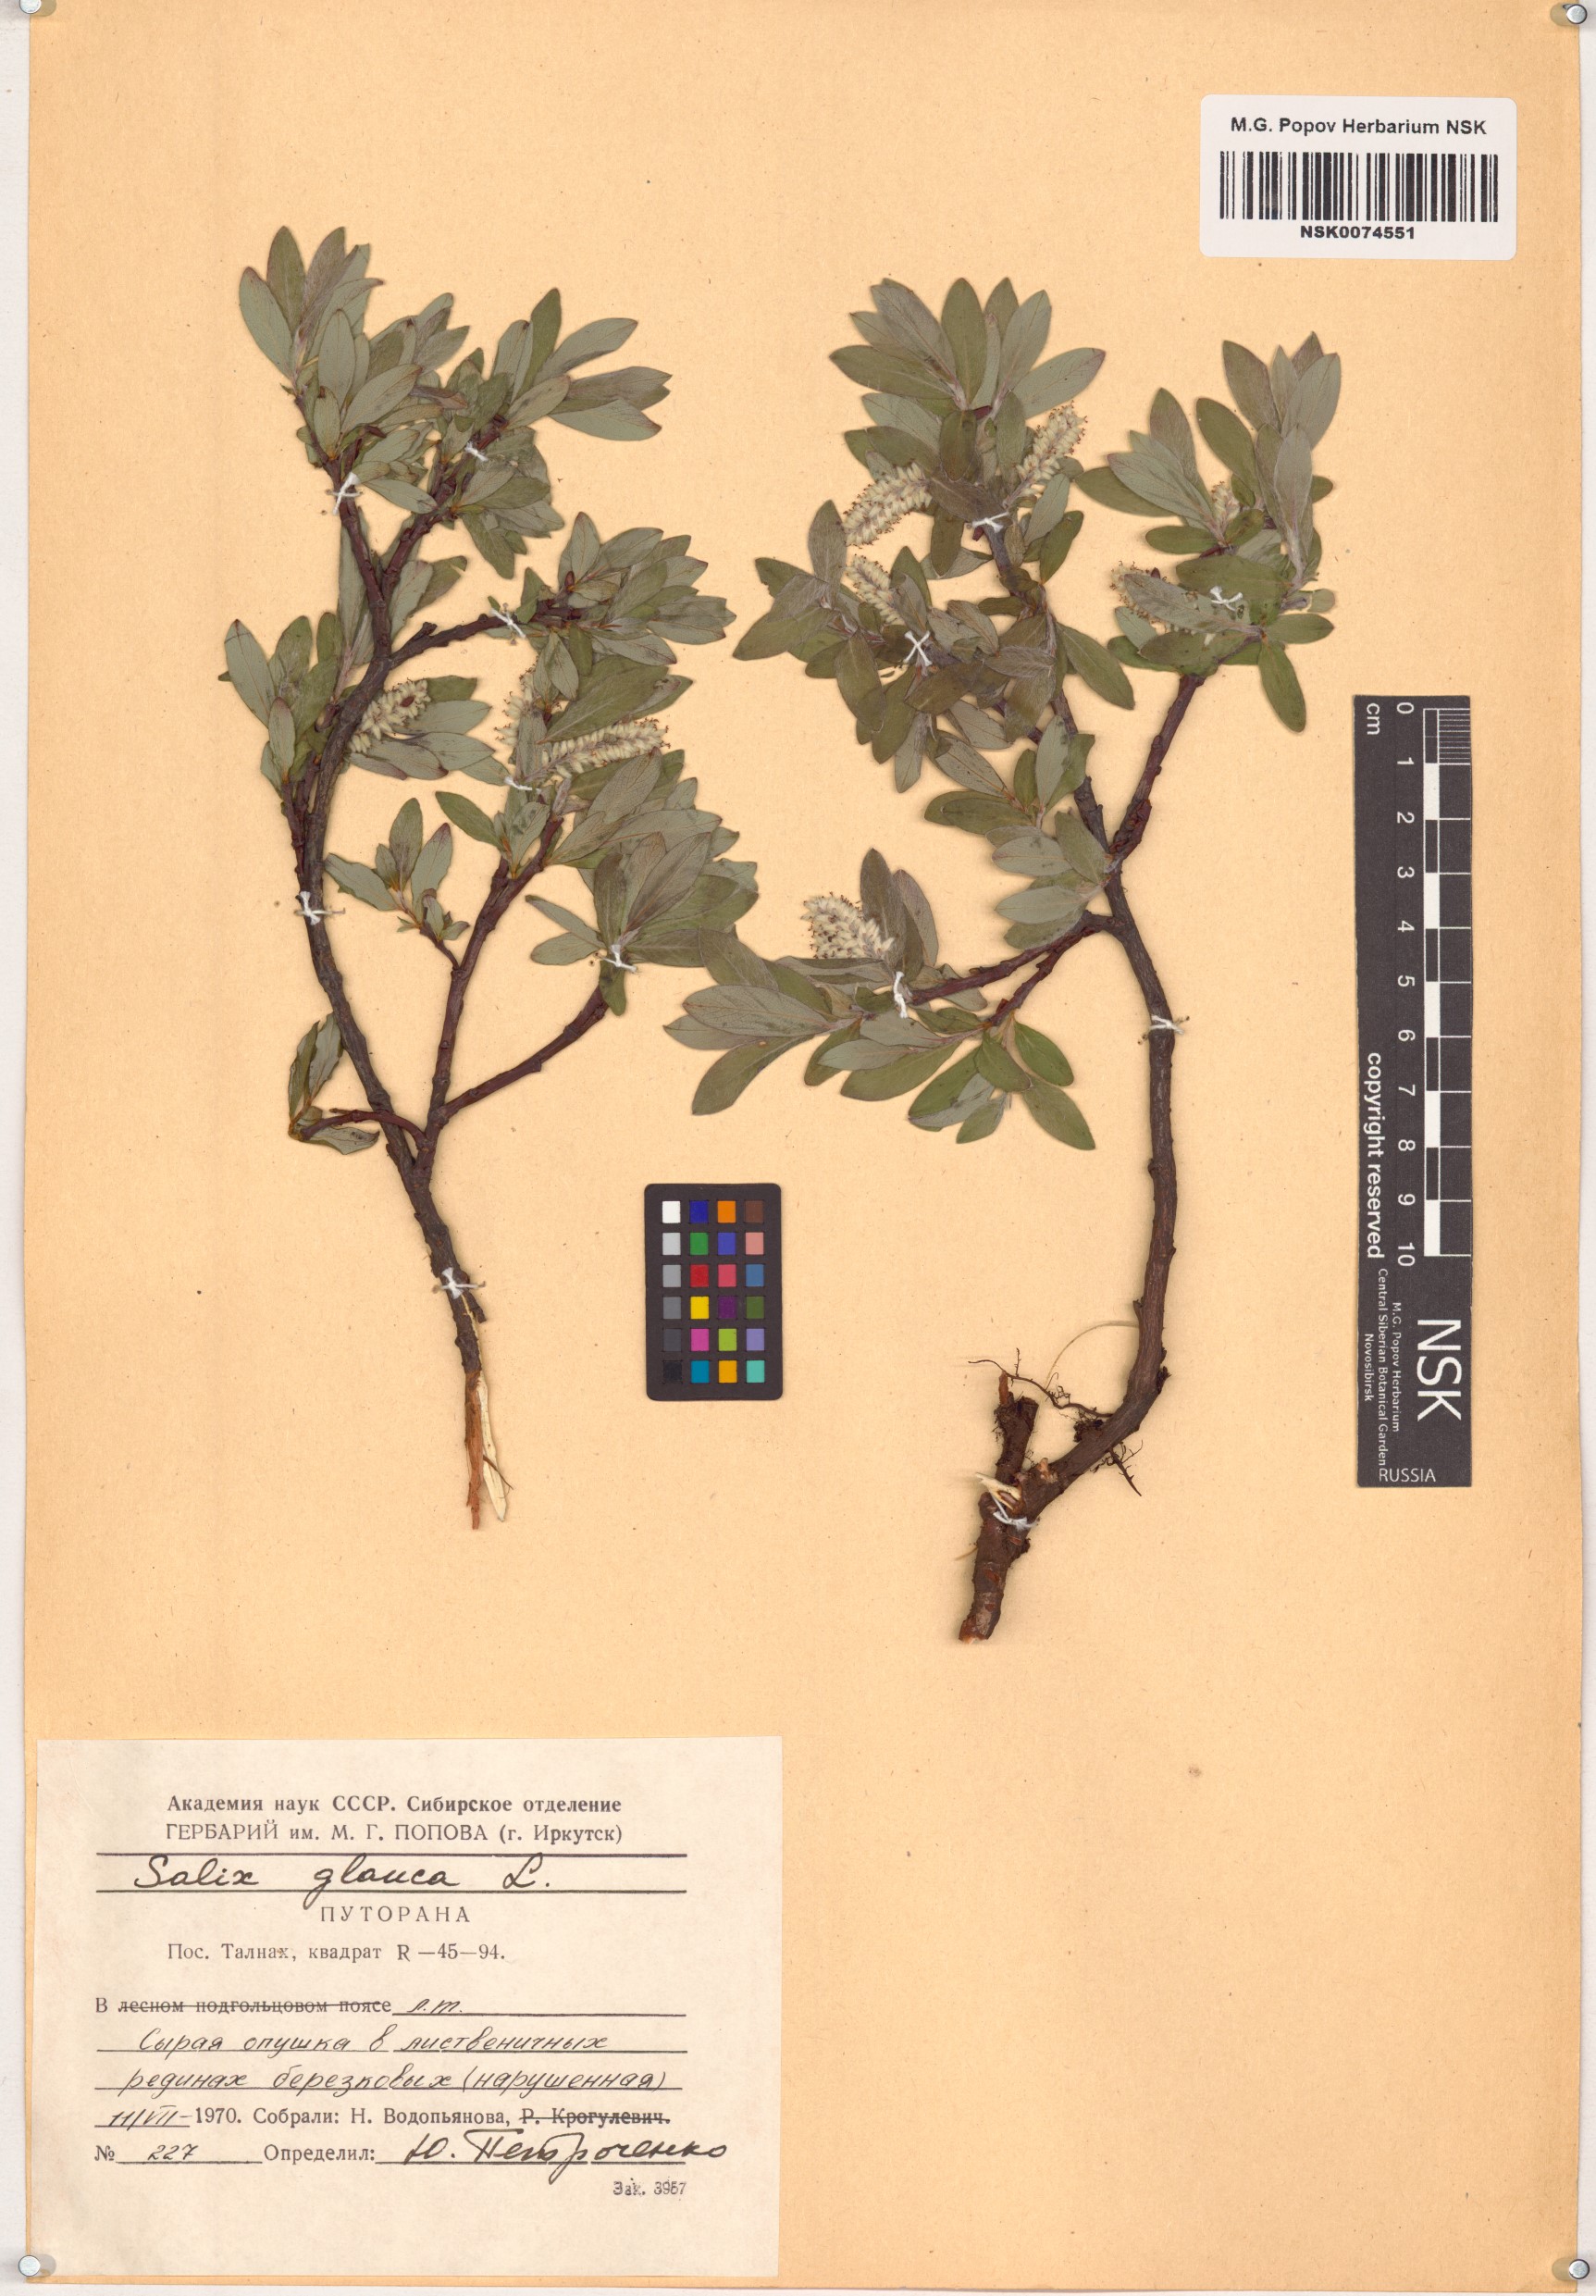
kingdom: Plantae
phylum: Tracheophyta
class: Magnoliopsida
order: Malpighiales
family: Salicaceae
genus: Salix
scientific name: Salix glauca
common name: Glaucous willow
